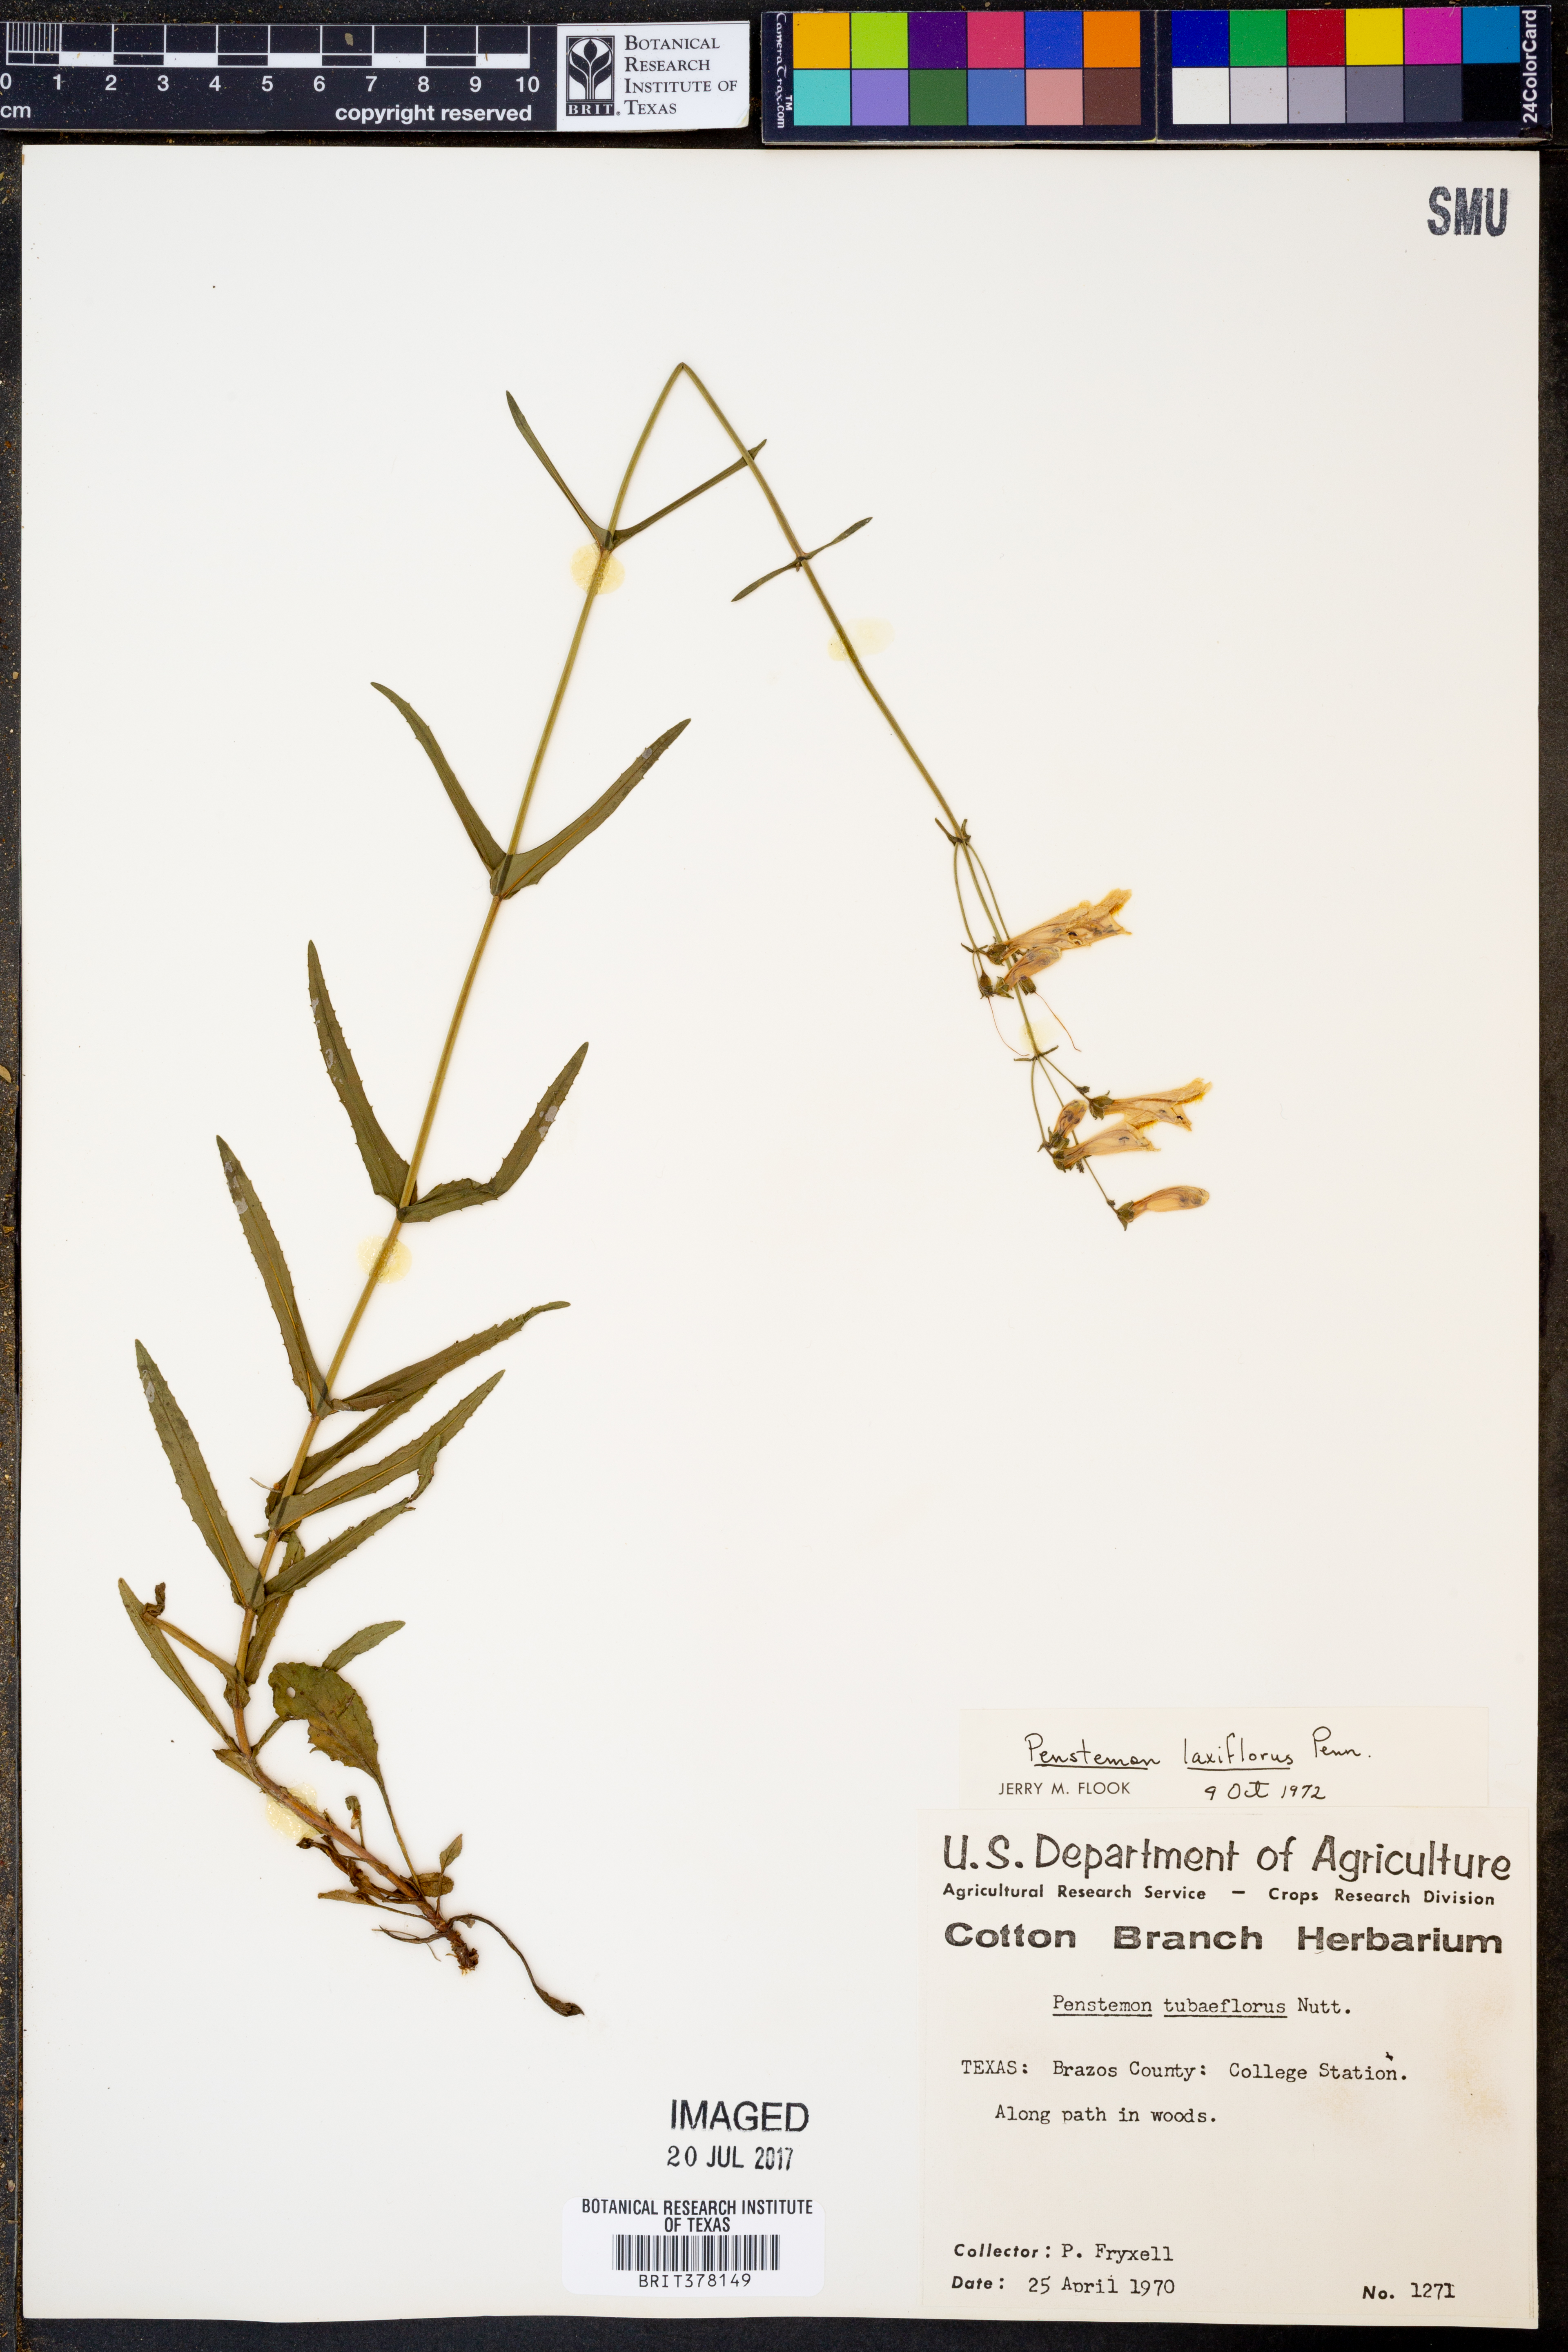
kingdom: Plantae
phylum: Tracheophyta
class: Magnoliopsida
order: Lamiales
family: Plantaginaceae
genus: Penstemon
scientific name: Penstemon laxiflorus
